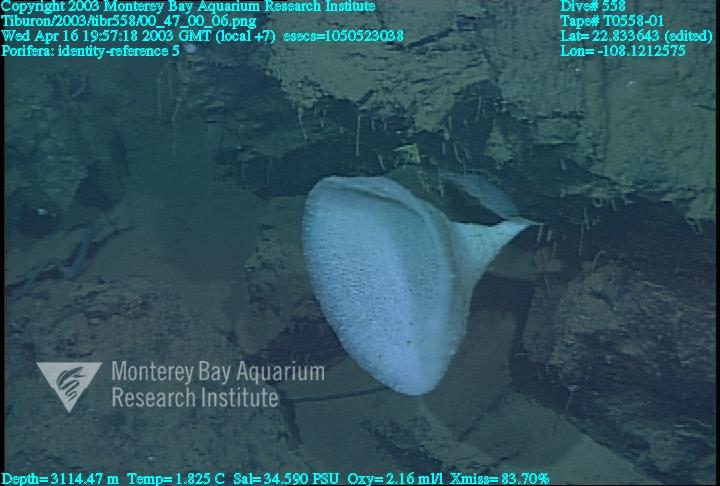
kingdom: Animalia
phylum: Porifera
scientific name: Porifera
